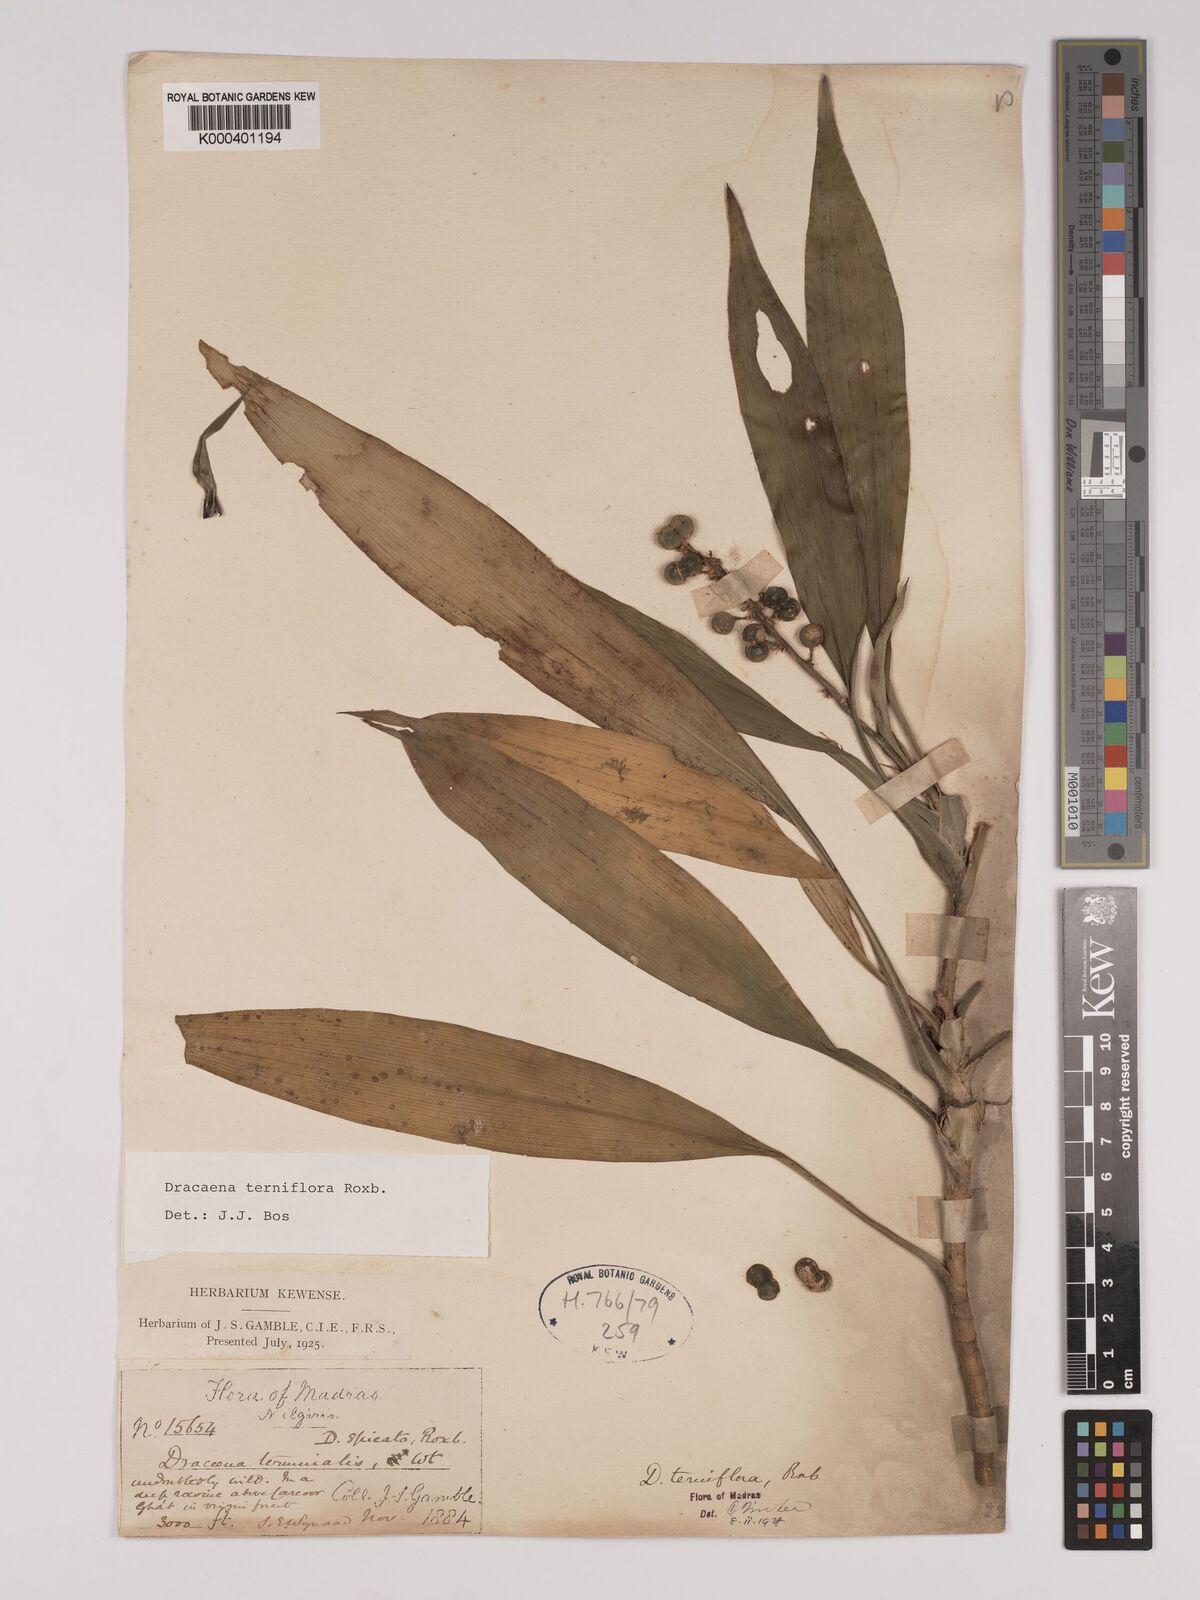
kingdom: Plantae
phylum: Tracheophyta
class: Liliopsida
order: Asparagales
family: Asparagaceae
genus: Dracaena
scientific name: Dracaena terniflora
